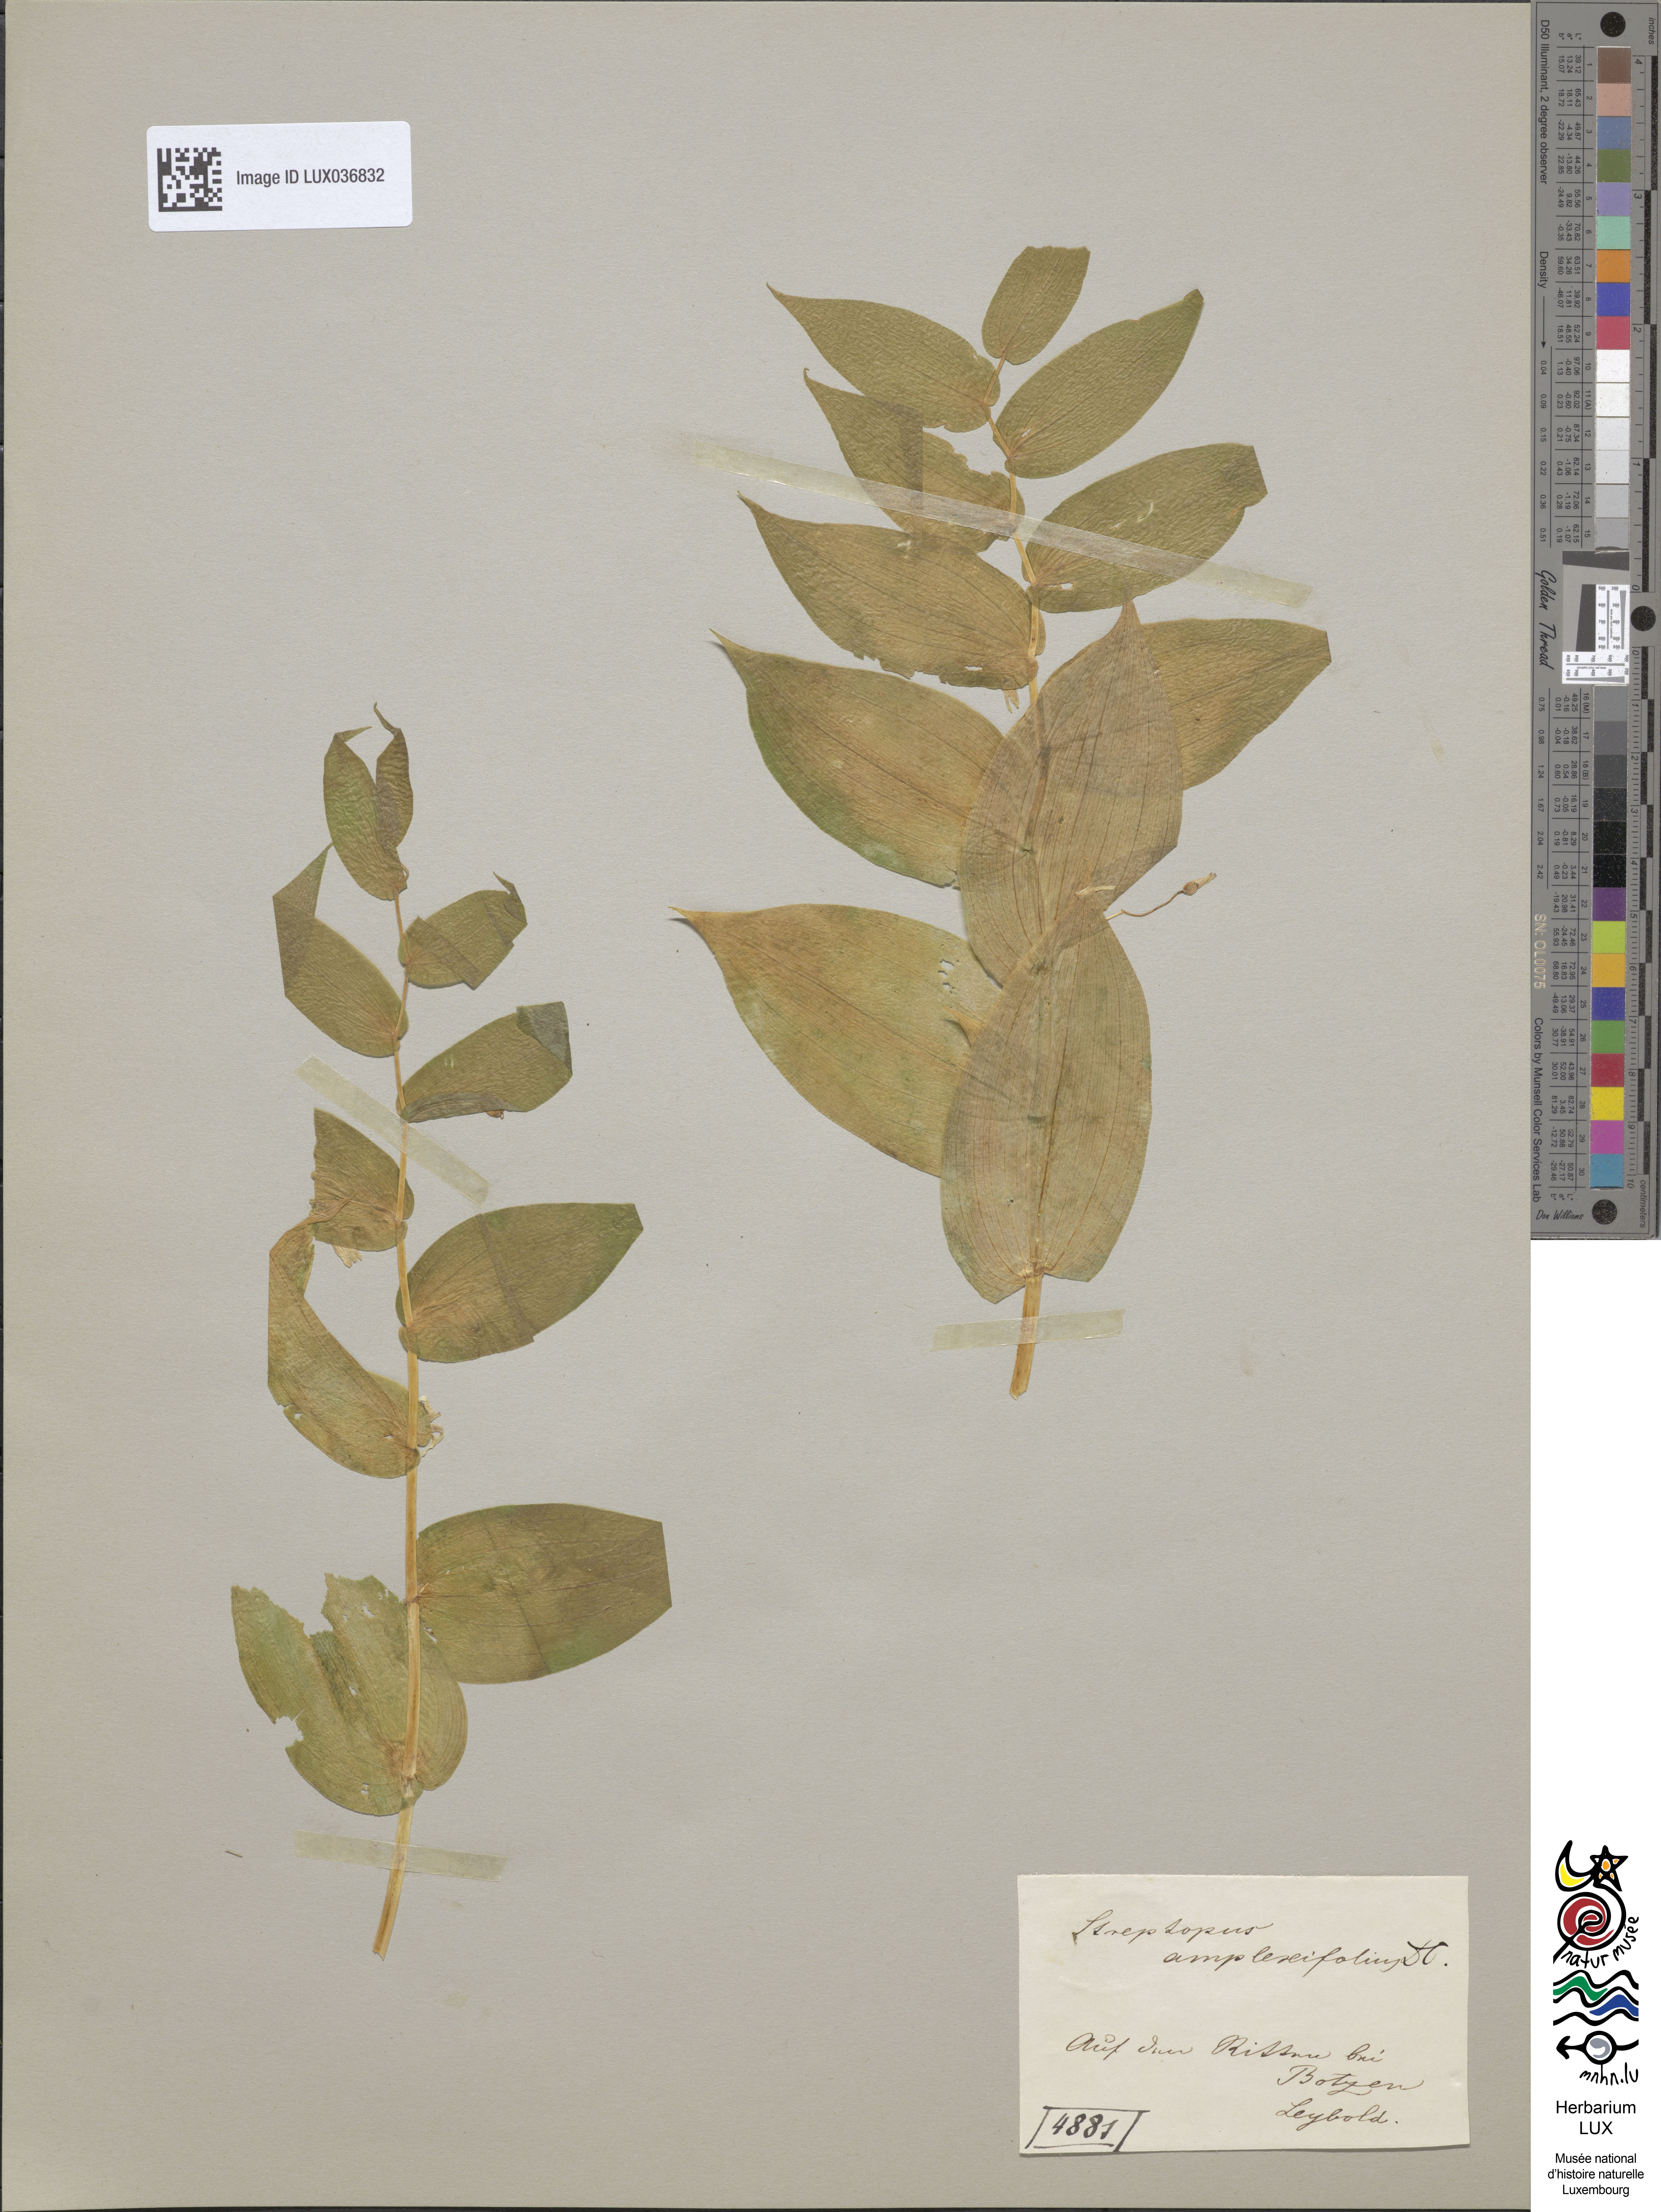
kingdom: Plantae
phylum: Tracheophyta
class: Liliopsida
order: Liliales
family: Liliaceae
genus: Streptopus
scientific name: Streptopus amplexifolius
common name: Clasp twisted stalk
